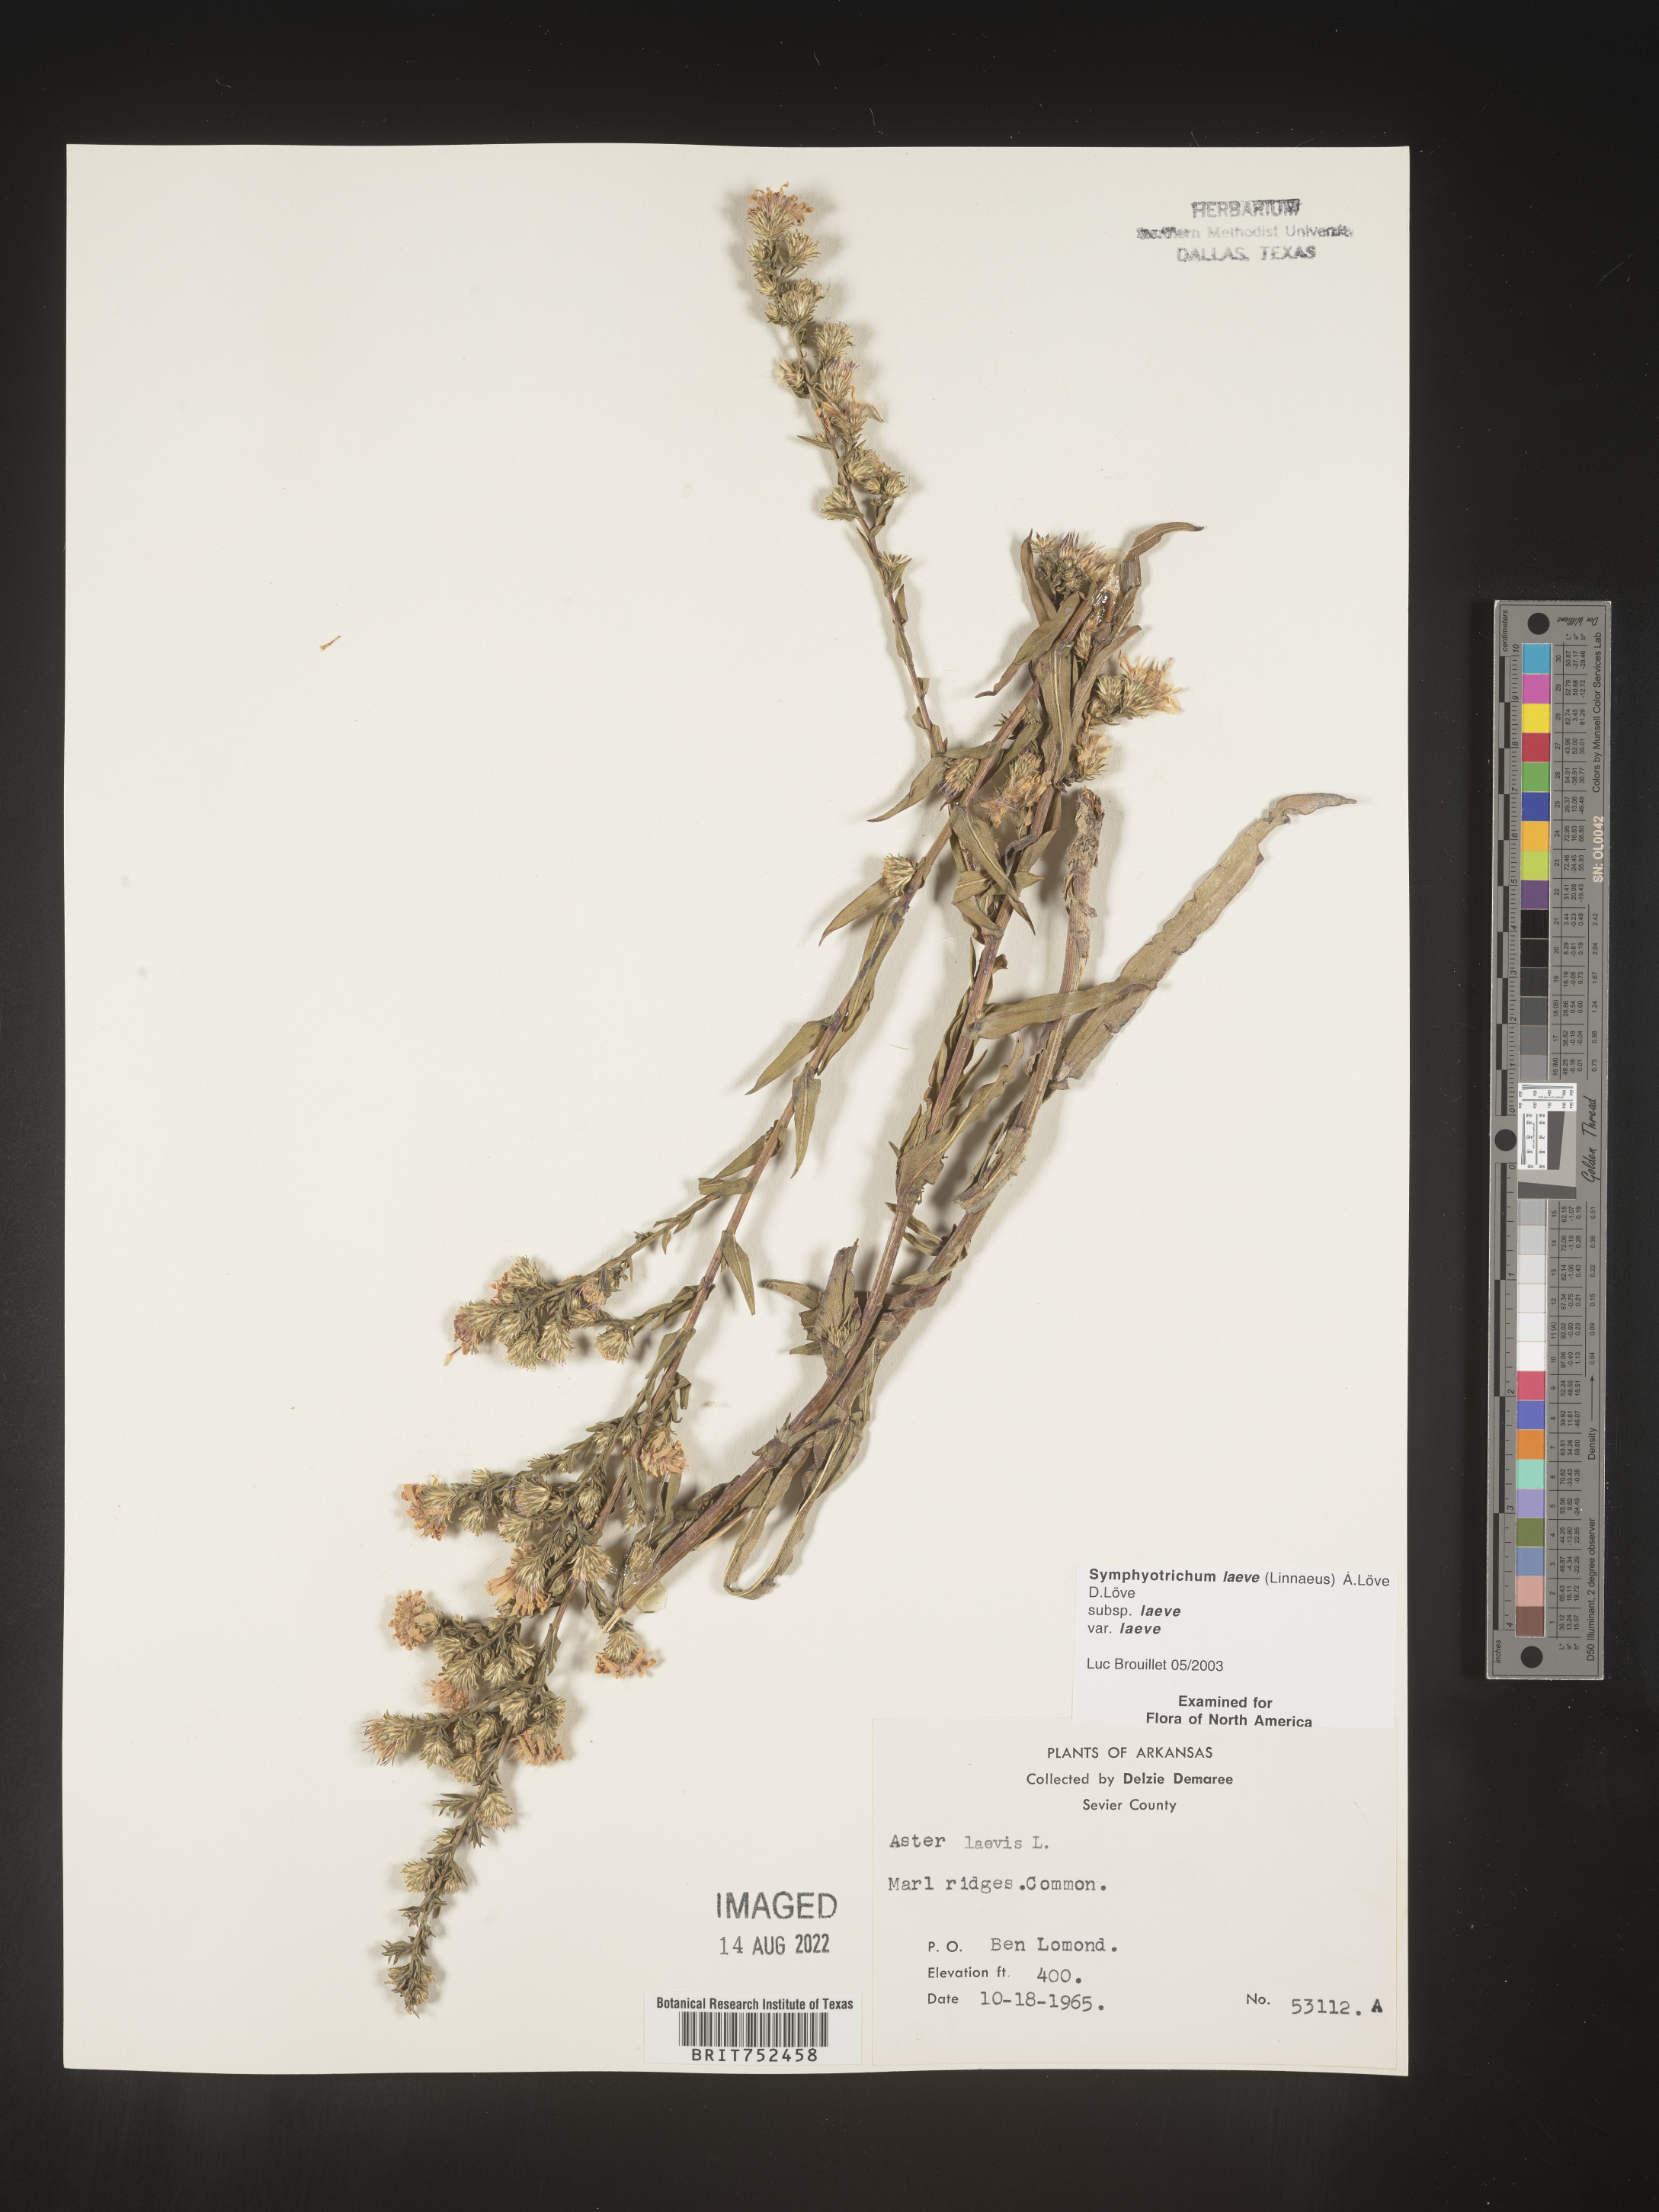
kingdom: Plantae
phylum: Tracheophyta
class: Magnoliopsida
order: Asterales
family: Asteraceae
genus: Symphyotrichum
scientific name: Symphyotrichum laeve
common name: Glaucous aster
